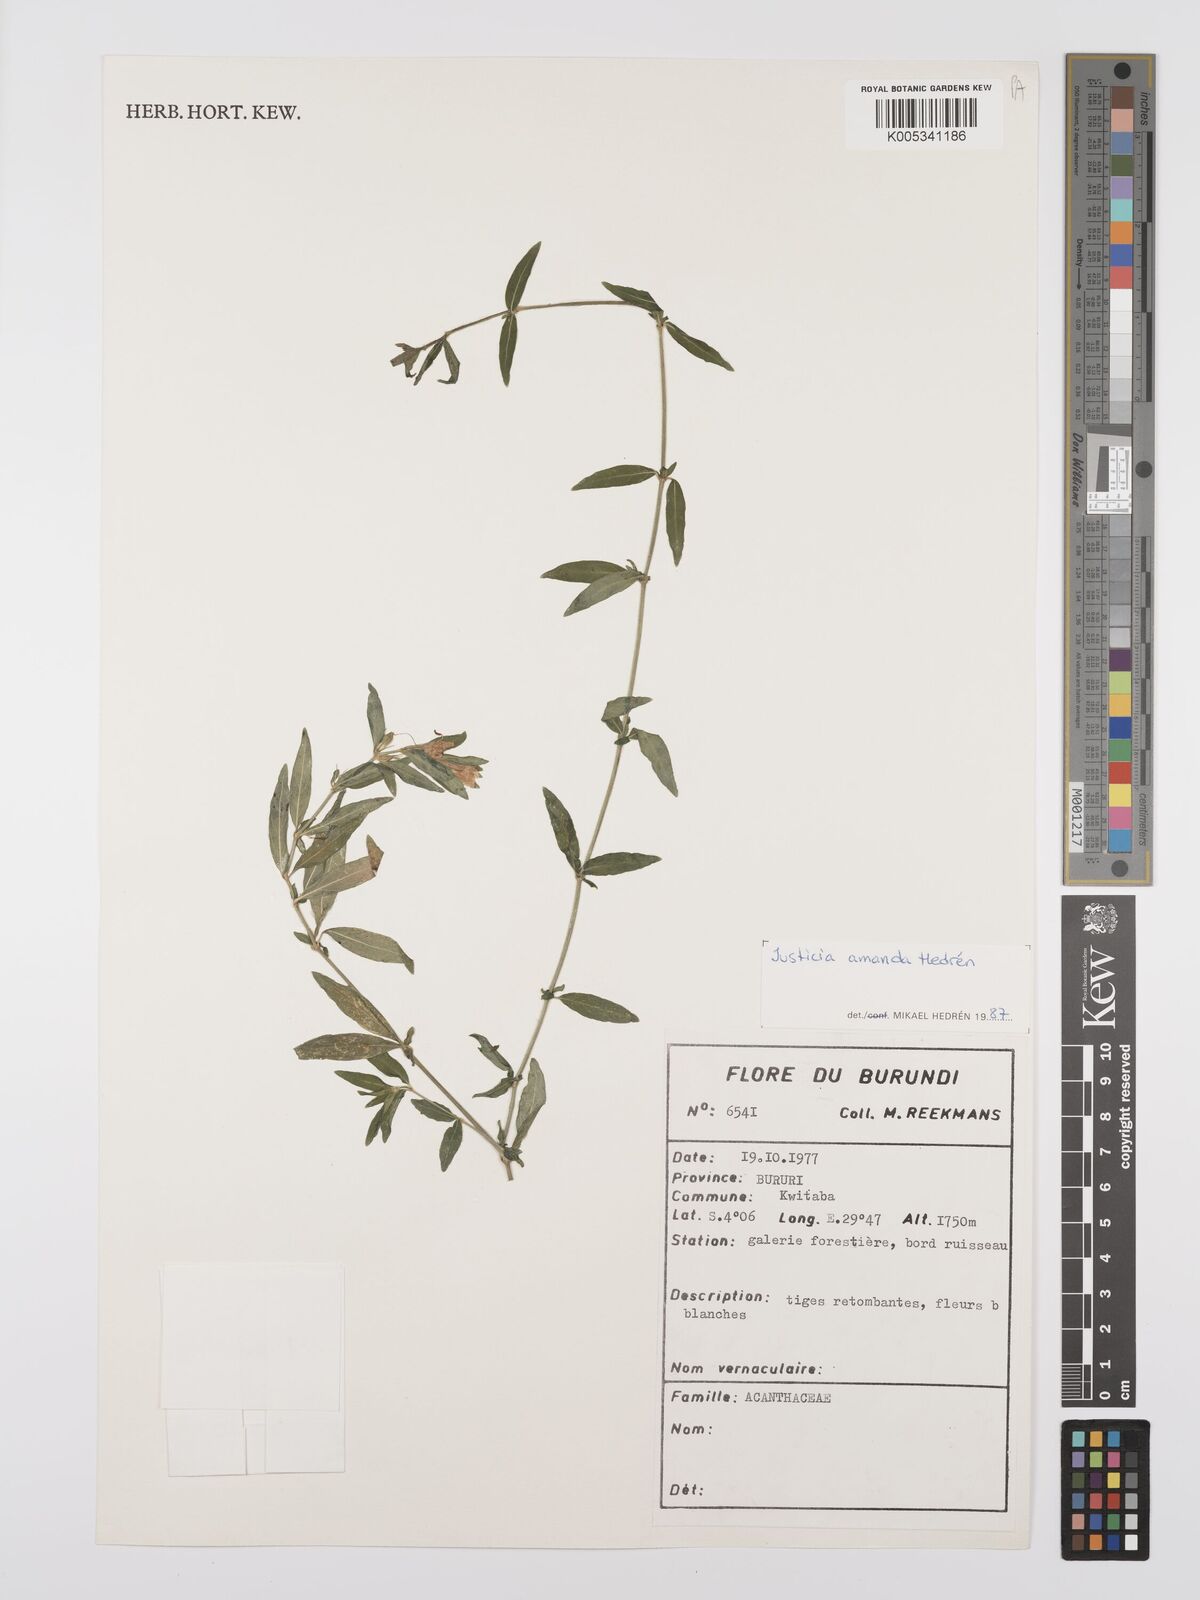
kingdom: Plantae
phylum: Tracheophyta
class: Magnoliopsida
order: Lamiales
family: Acanthaceae
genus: Justicia
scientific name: Justicia amanda
